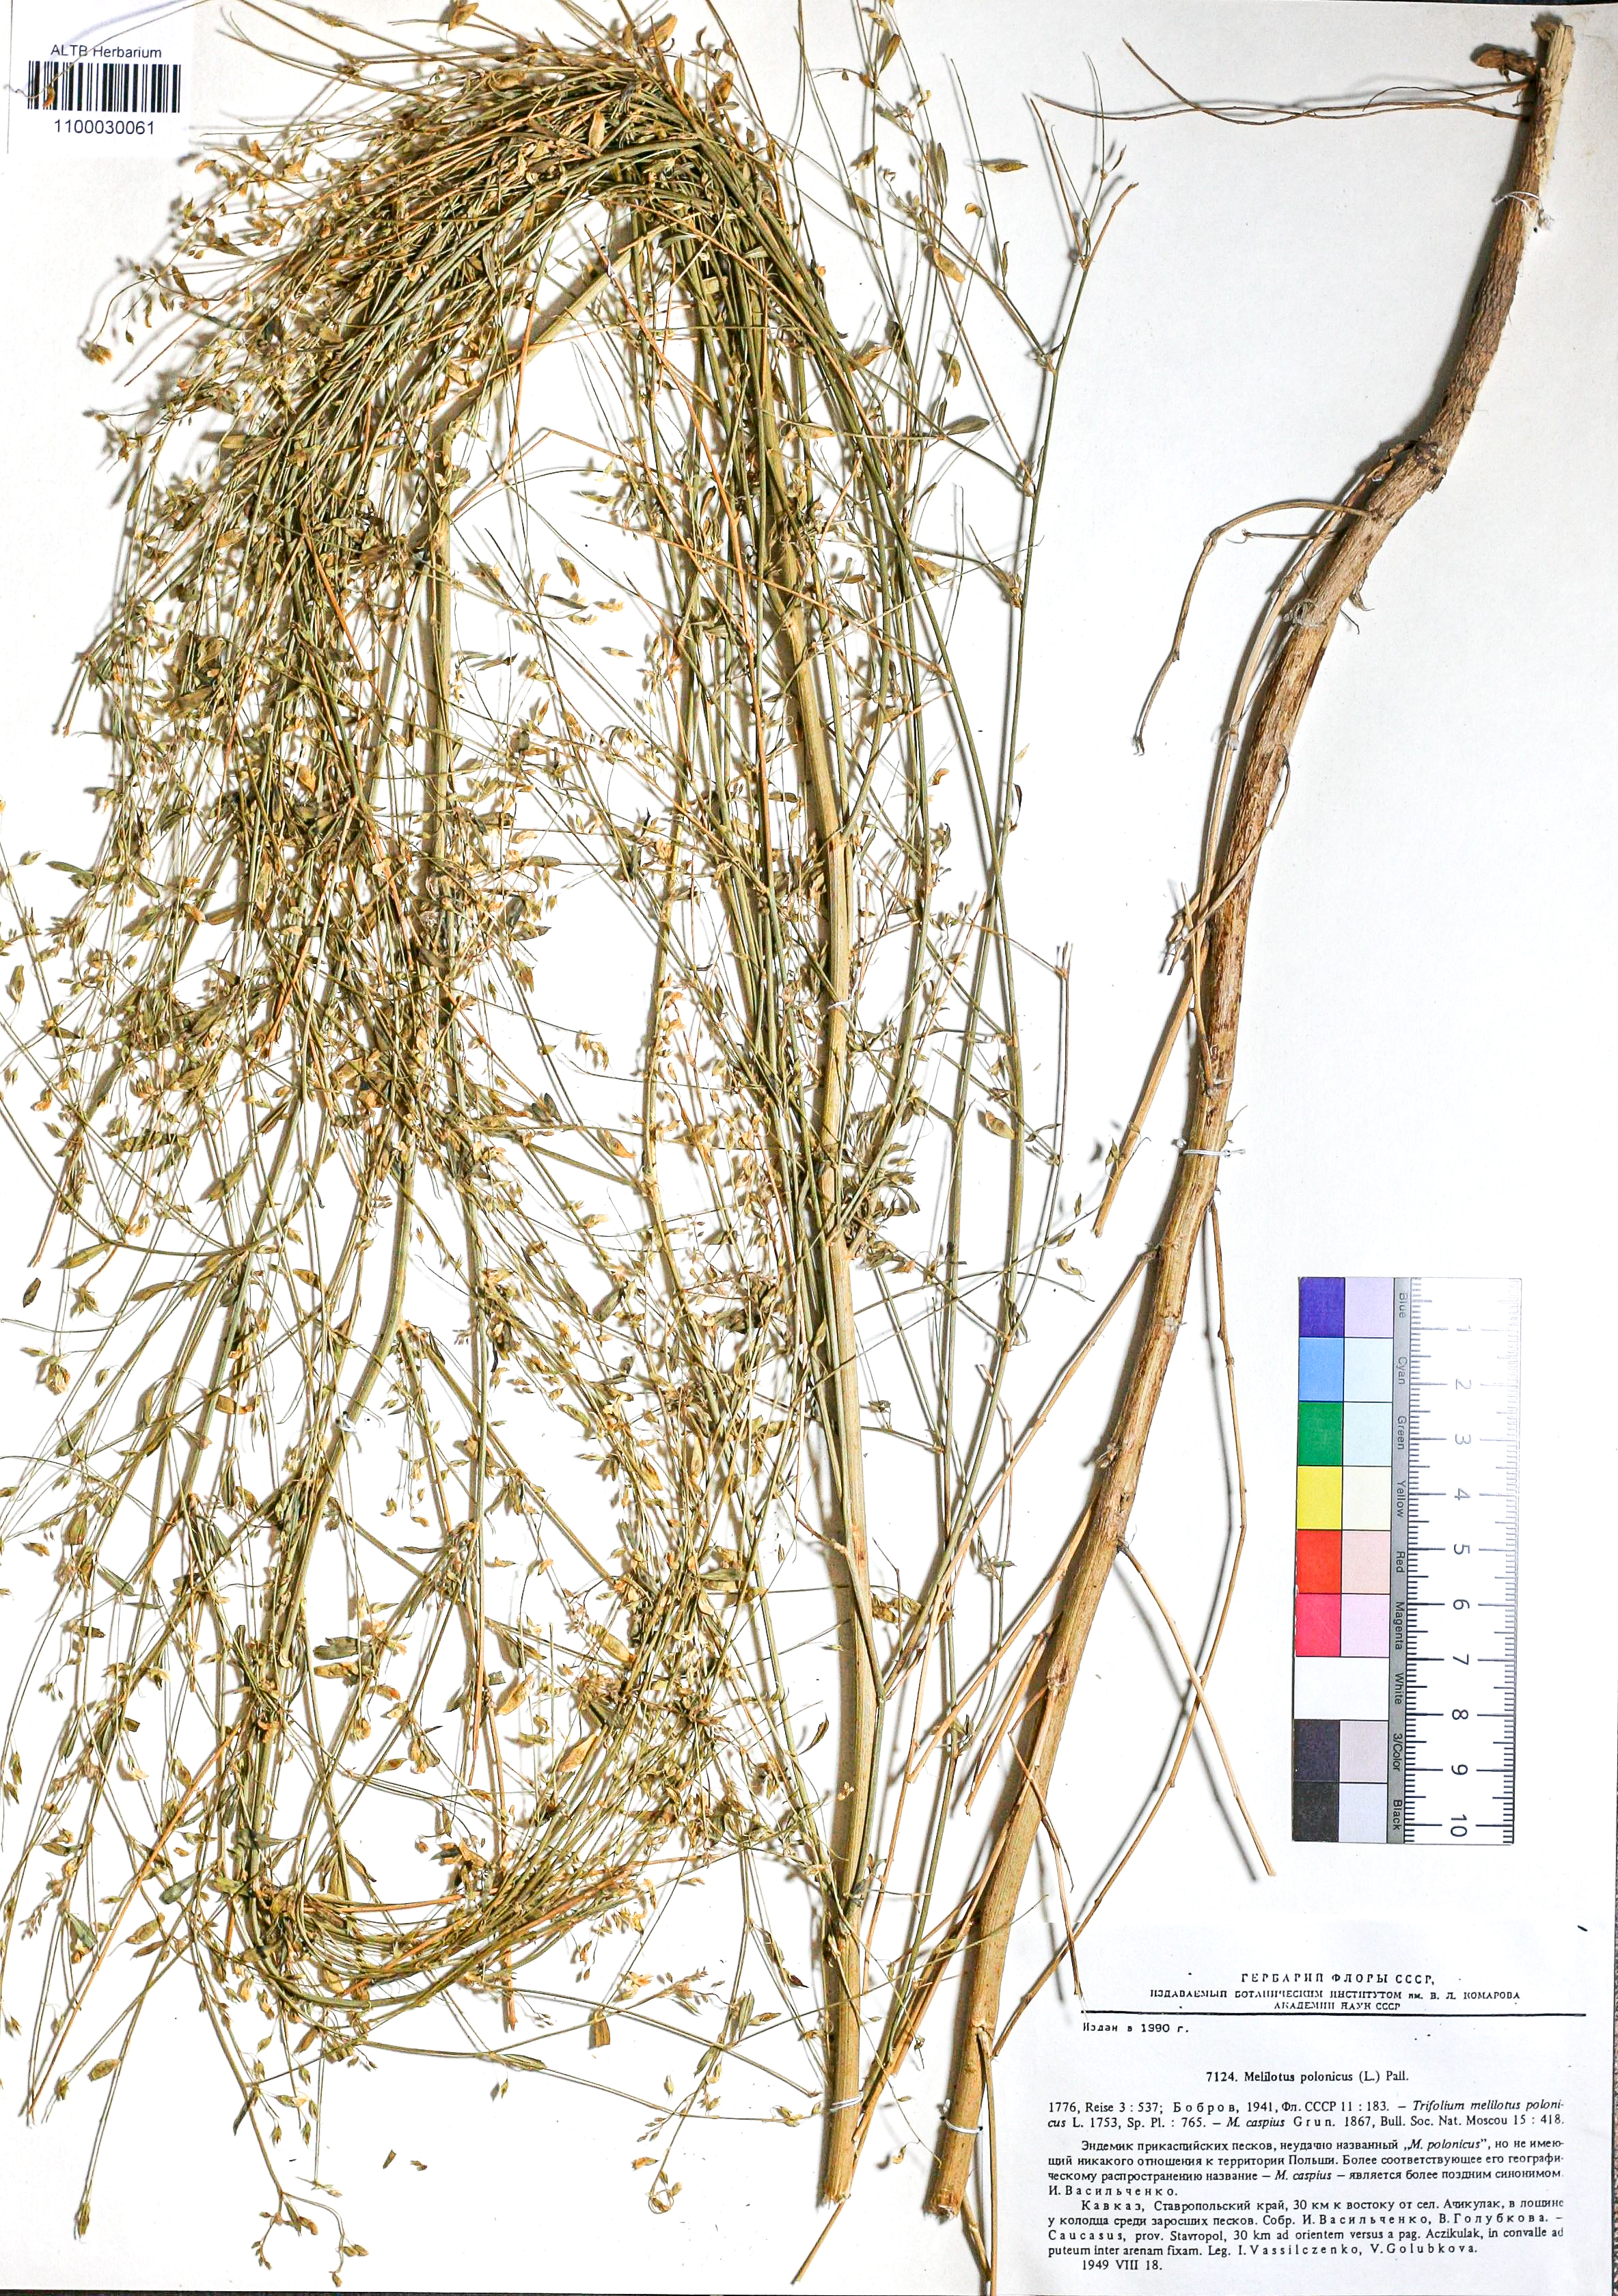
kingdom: Plantae
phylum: Tracheophyta
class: Magnoliopsida
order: Fabales
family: Fabaceae
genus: Melilotus
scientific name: Melilotus polonicus
